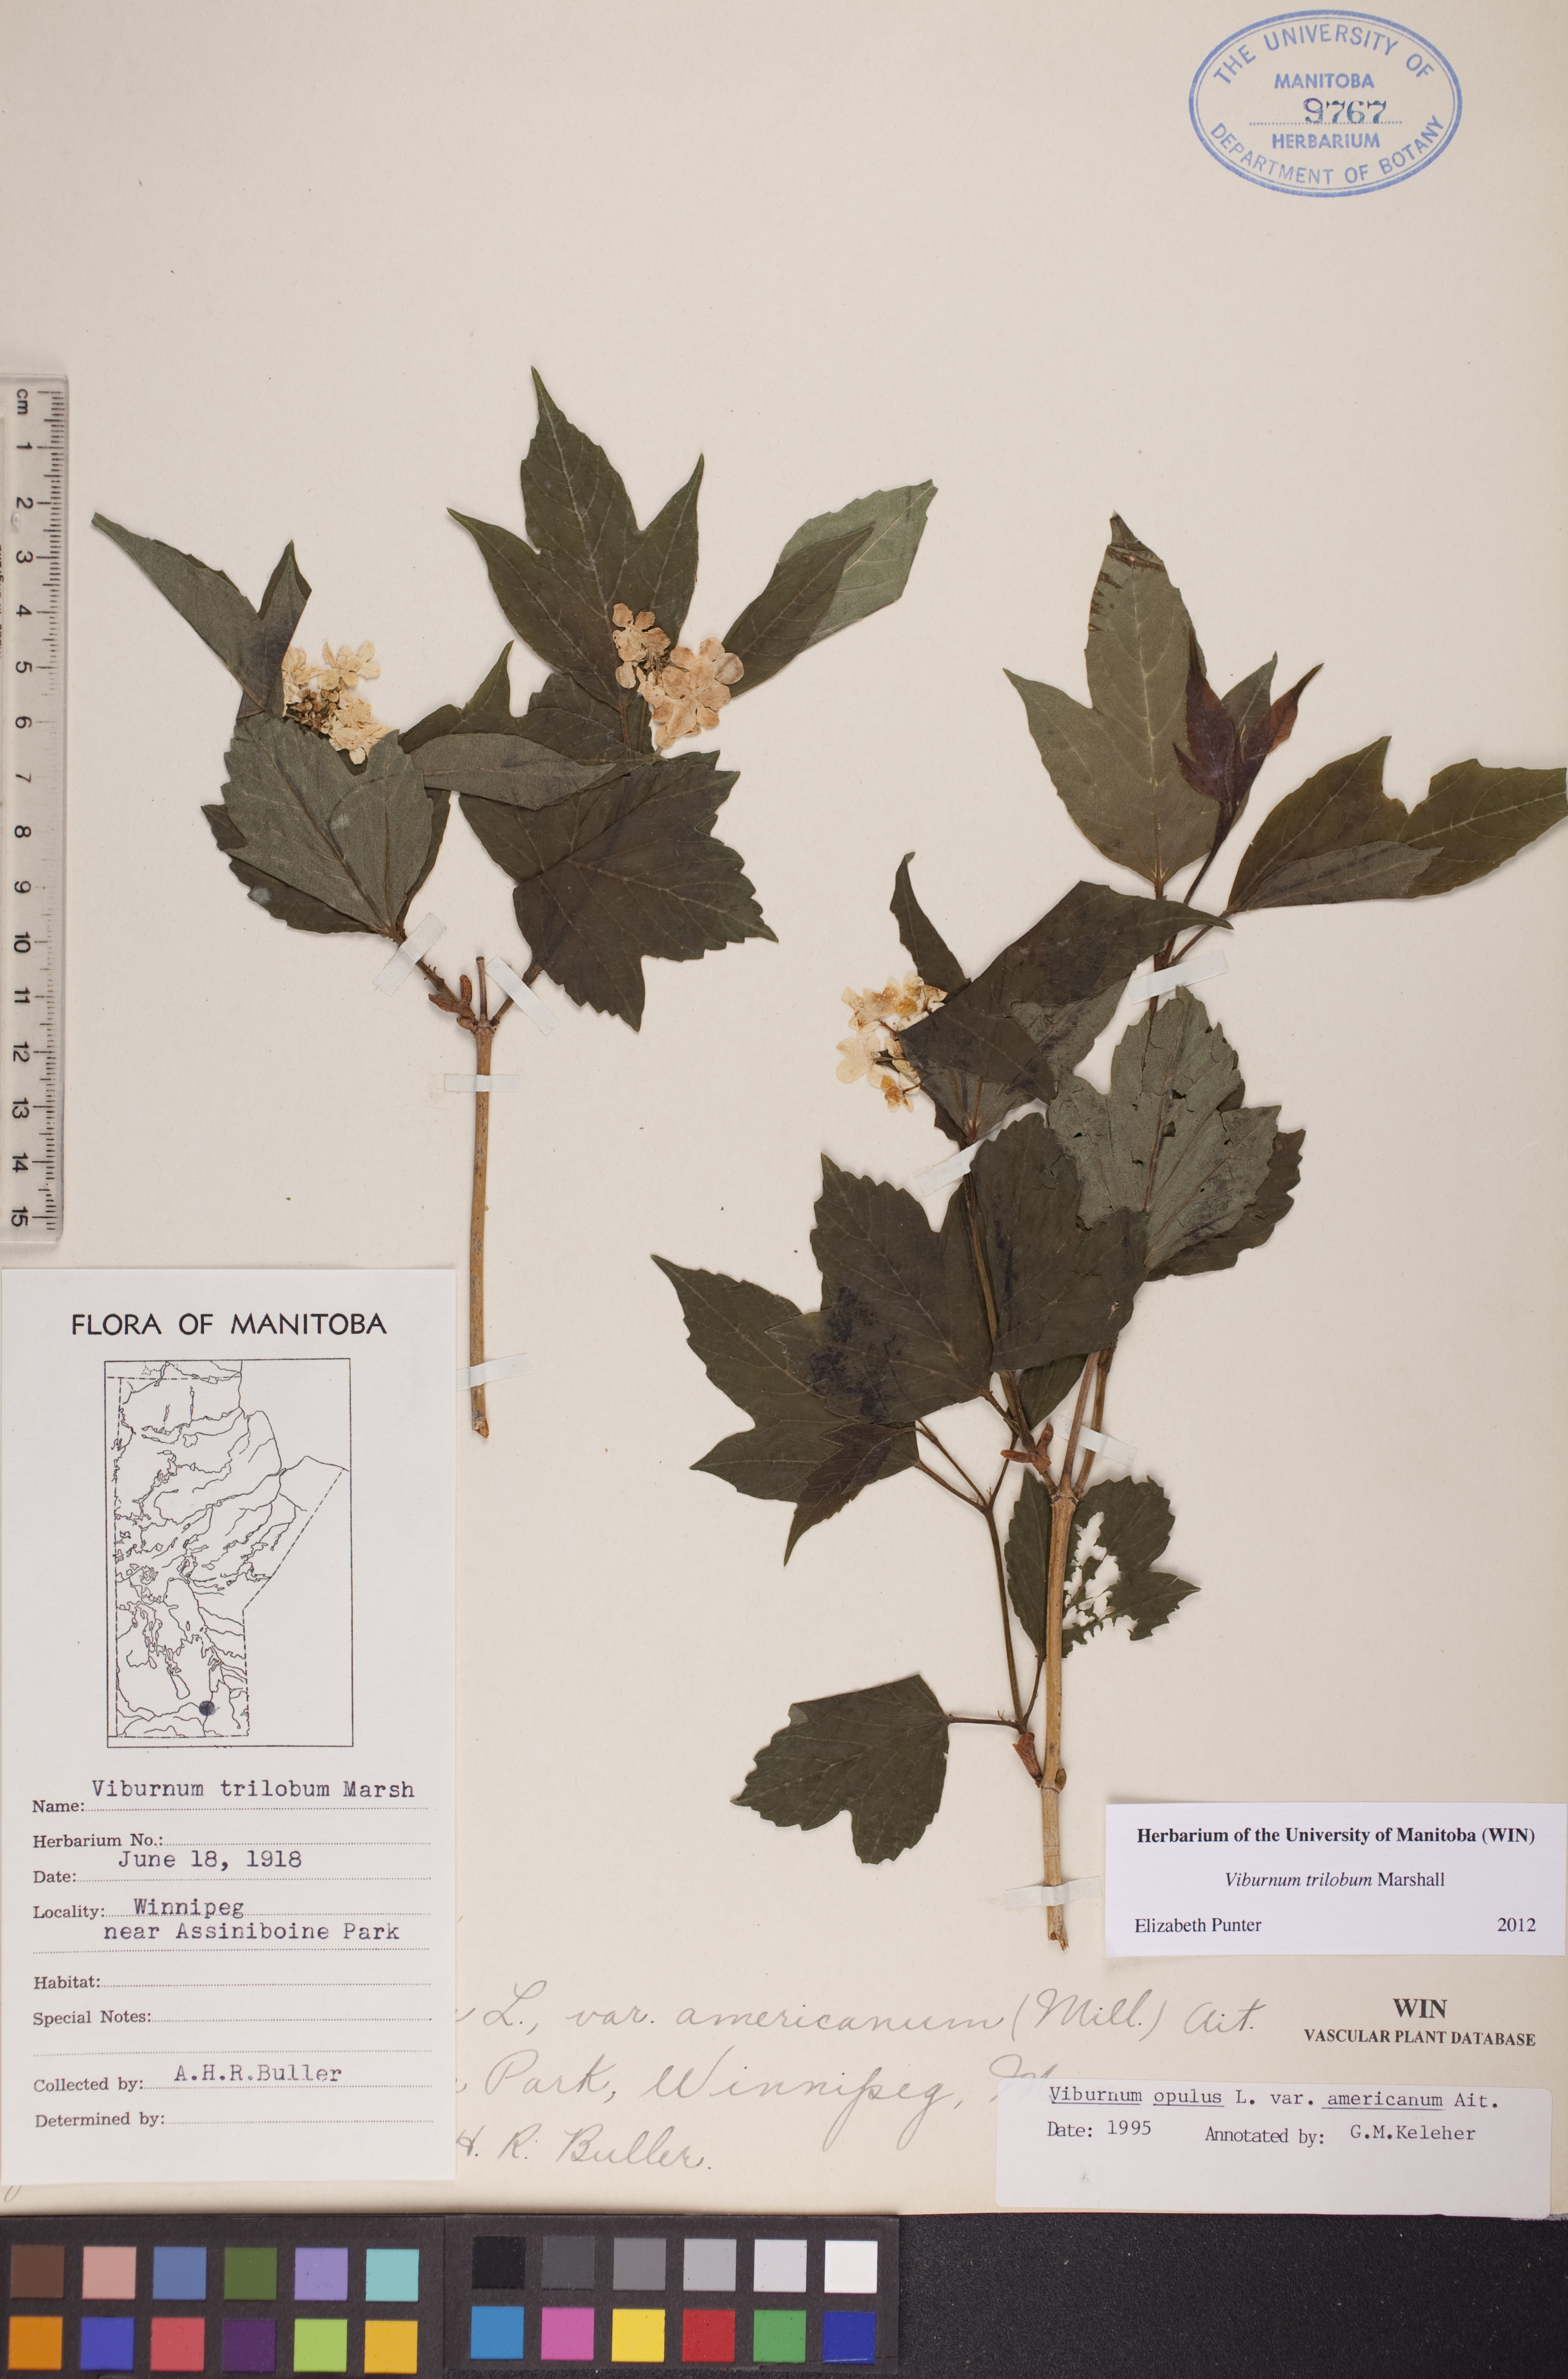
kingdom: Plantae
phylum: Tracheophyta
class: Magnoliopsida
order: Dipsacales
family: Viburnaceae
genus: Viburnum
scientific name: Viburnum trilobum
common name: American cranberrybush
